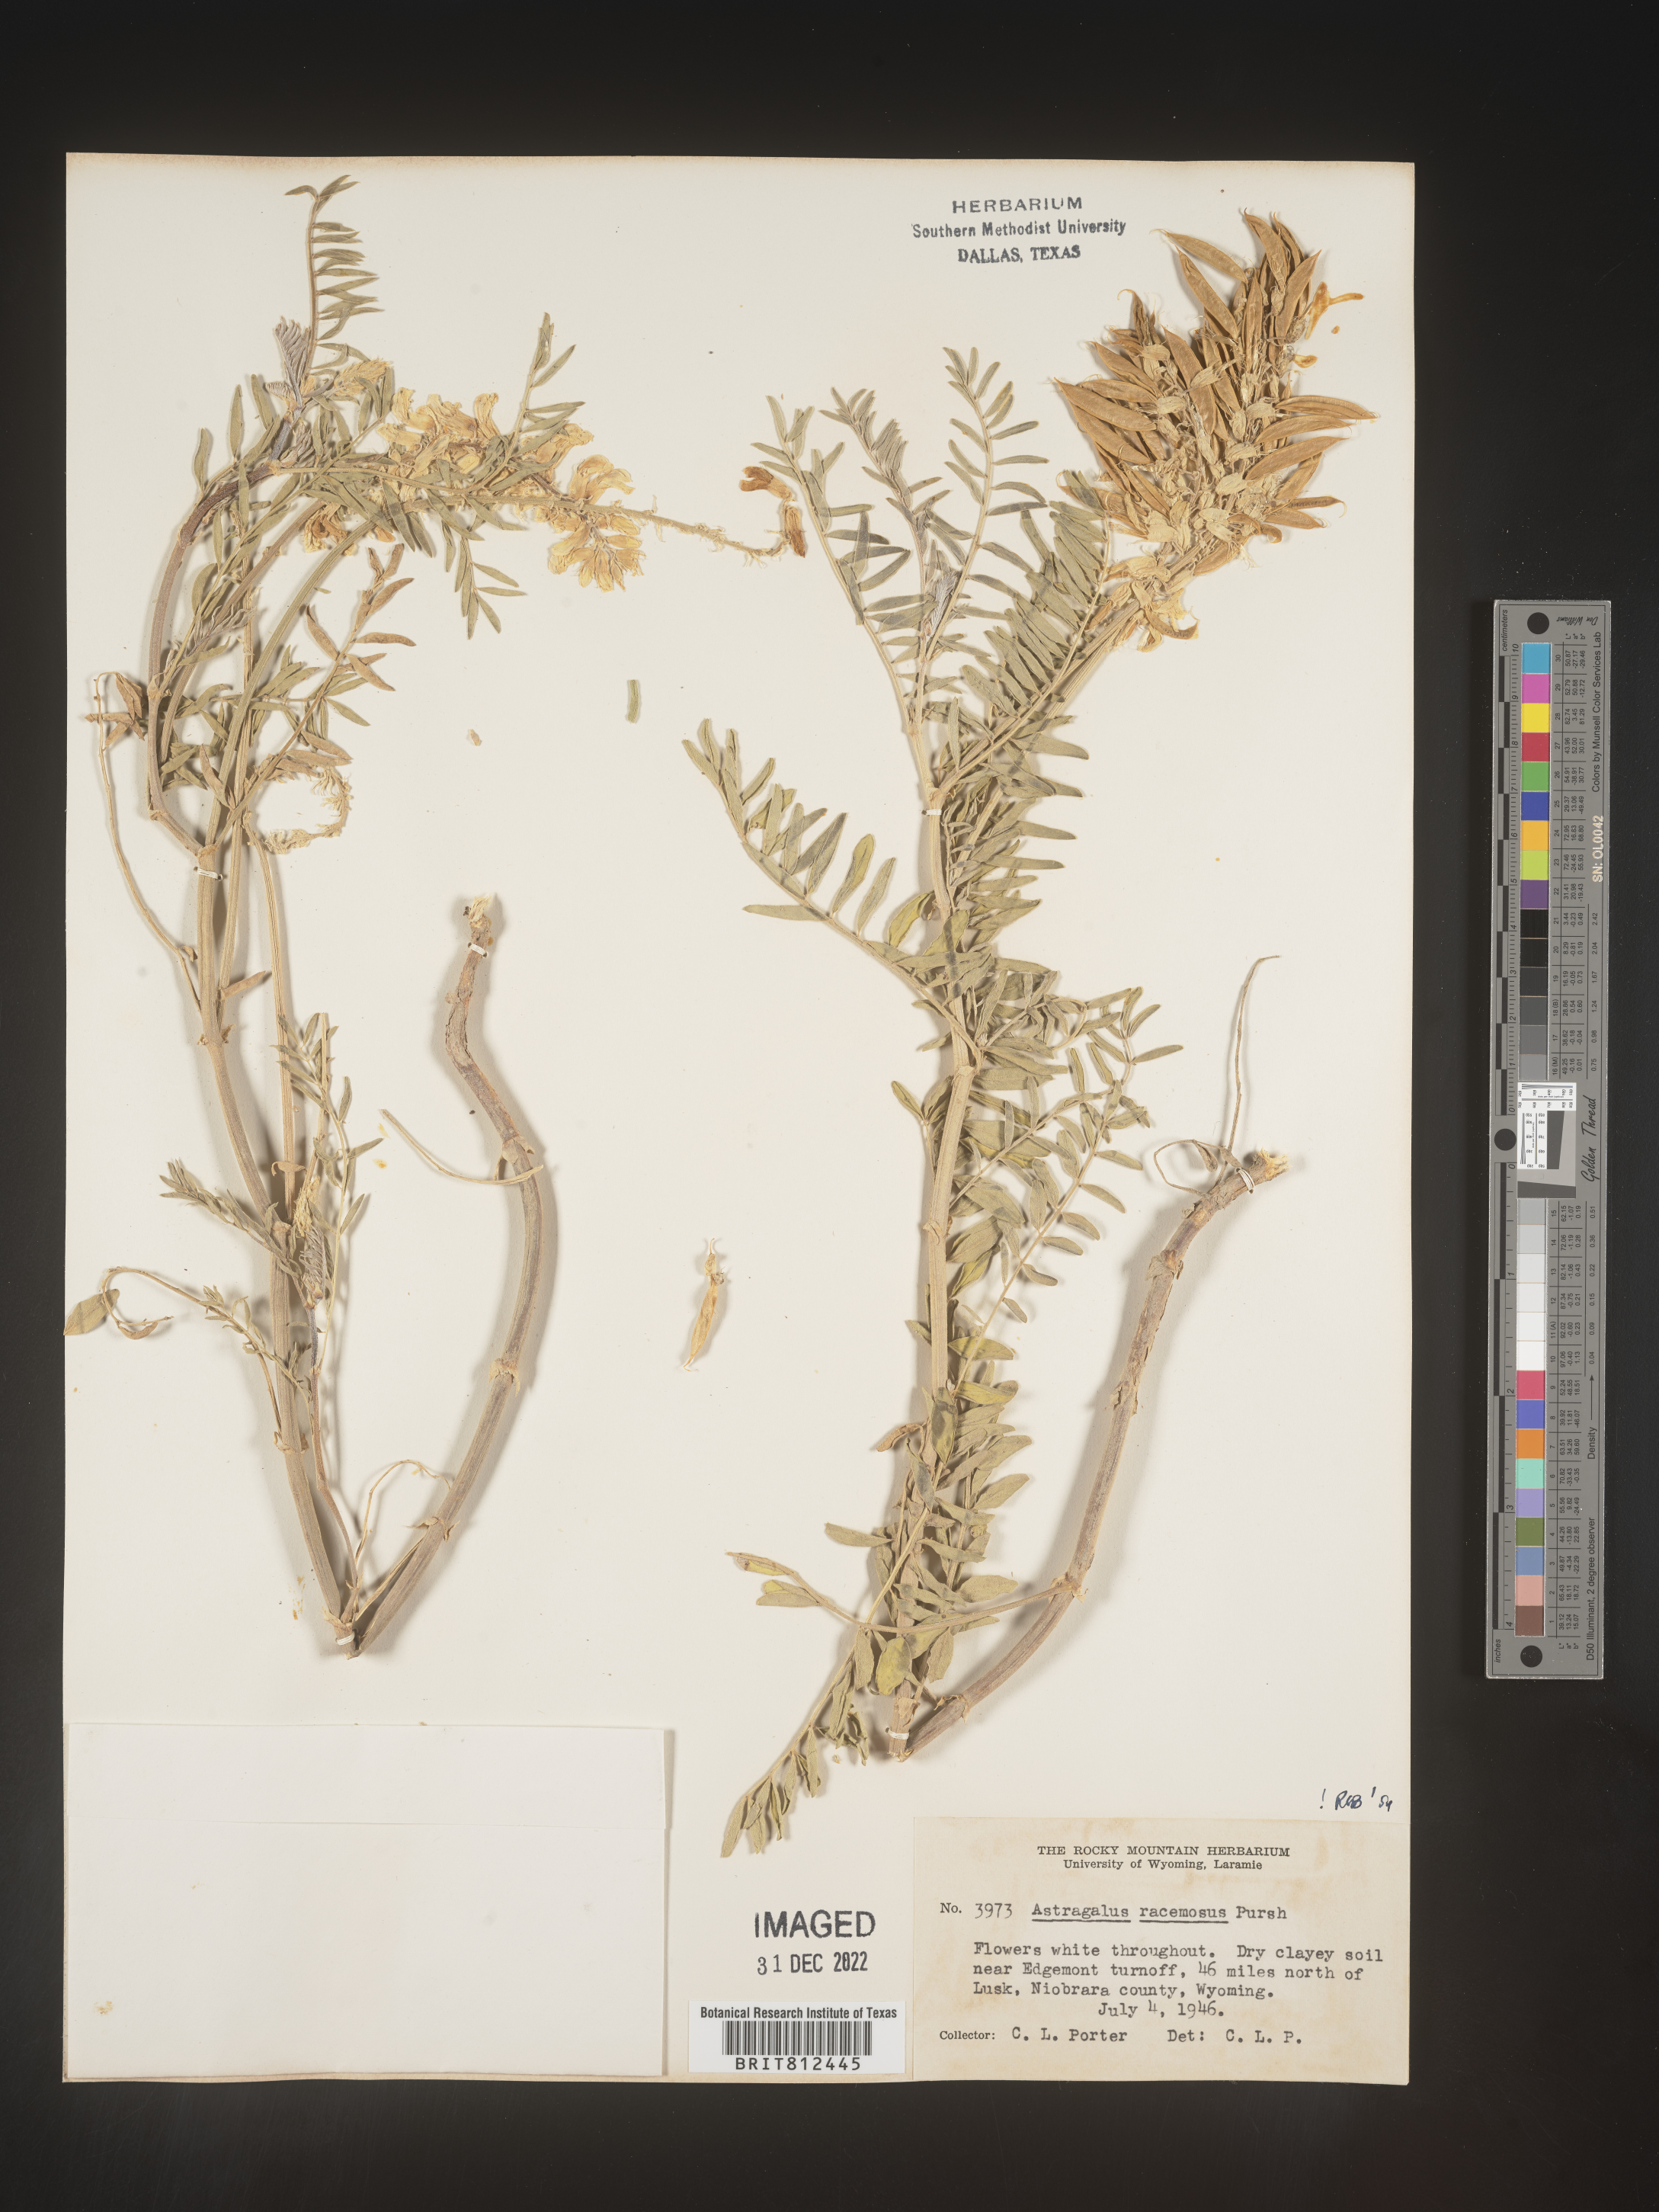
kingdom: Plantae
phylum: Tracheophyta
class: Magnoliopsida
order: Fabales
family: Fabaceae
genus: Astragalus
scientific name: Astragalus racemosus
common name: Alkali milk-vetch
